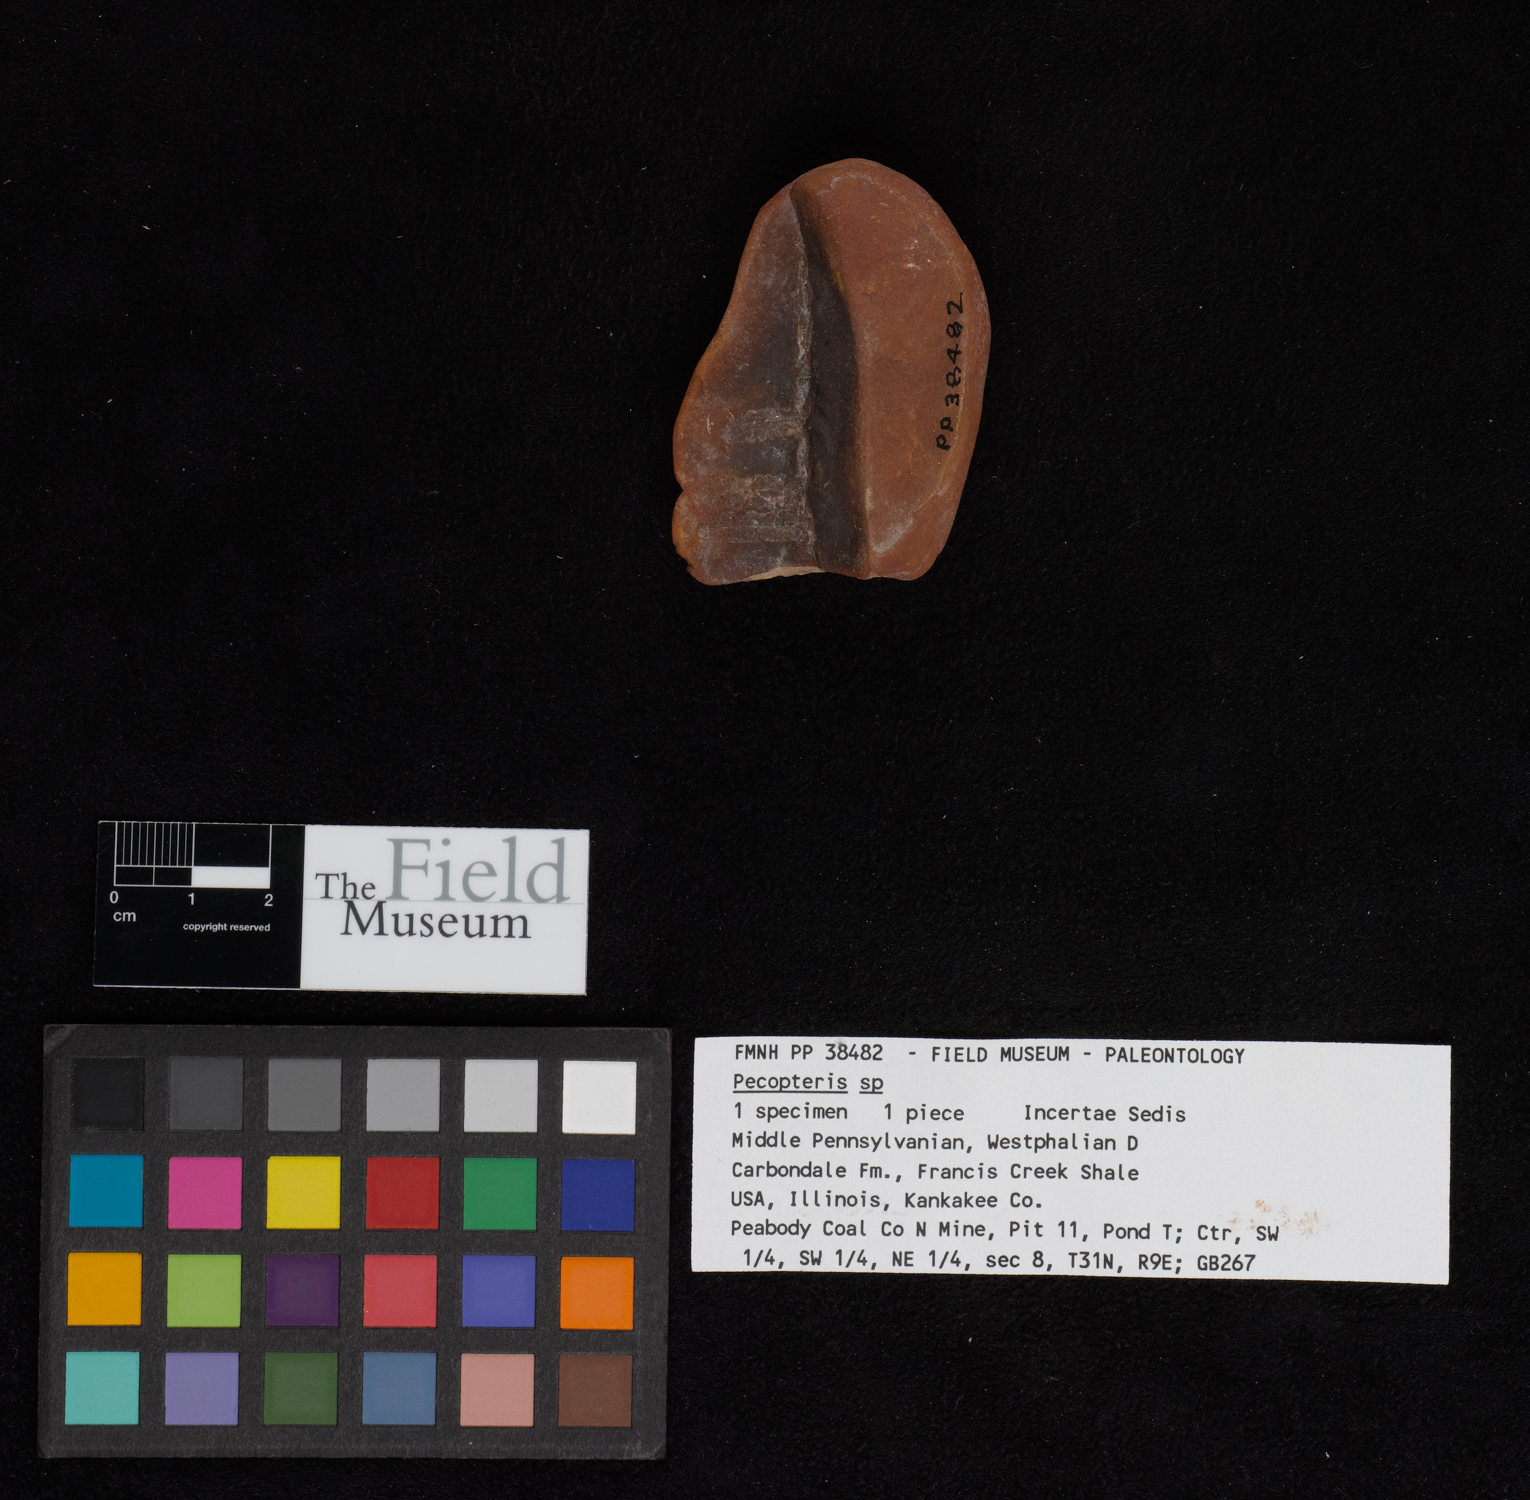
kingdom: Plantae
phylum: Tracheophyta
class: Polypodiopsida
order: Marattiales
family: Asterothecaceae
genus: Pecopteris
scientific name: Pecopteris
